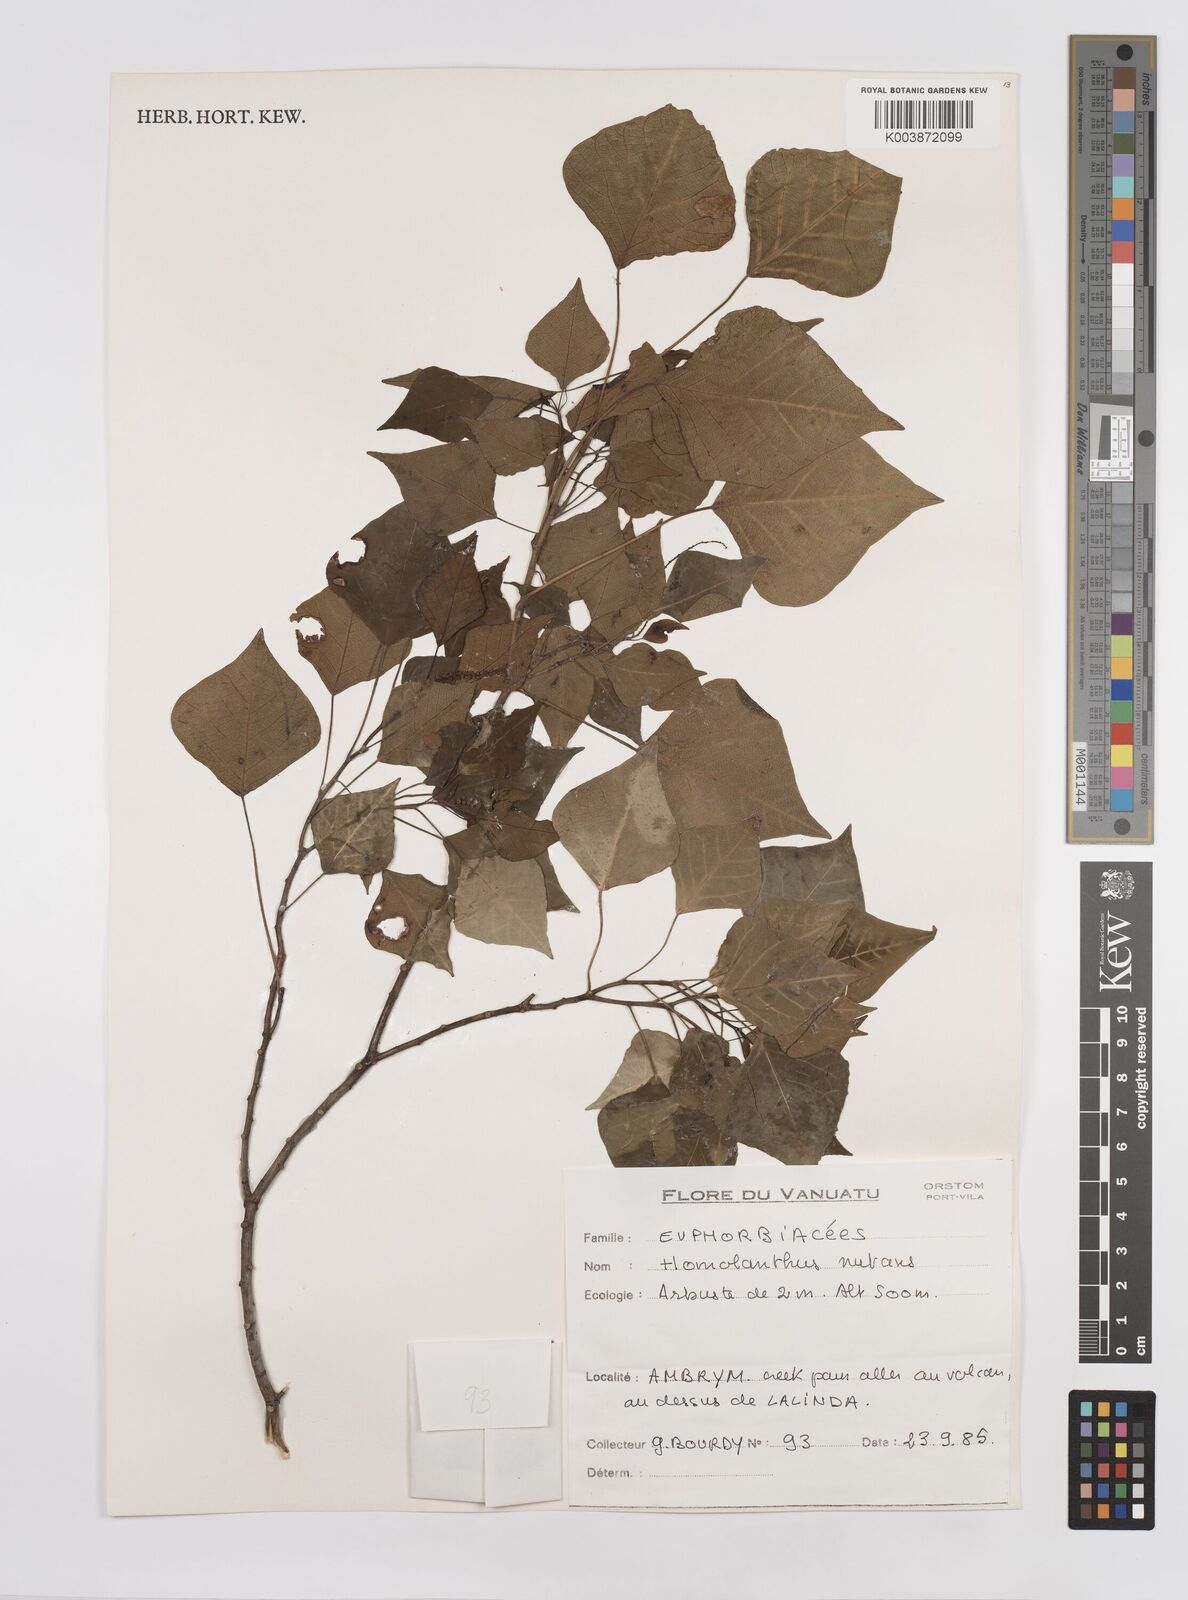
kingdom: Plantae
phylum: Tracheophyta
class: Magnoliopsida
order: Malpighiales
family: Euphorbiaceae
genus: Homalanthus
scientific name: Homalanthus nutans
